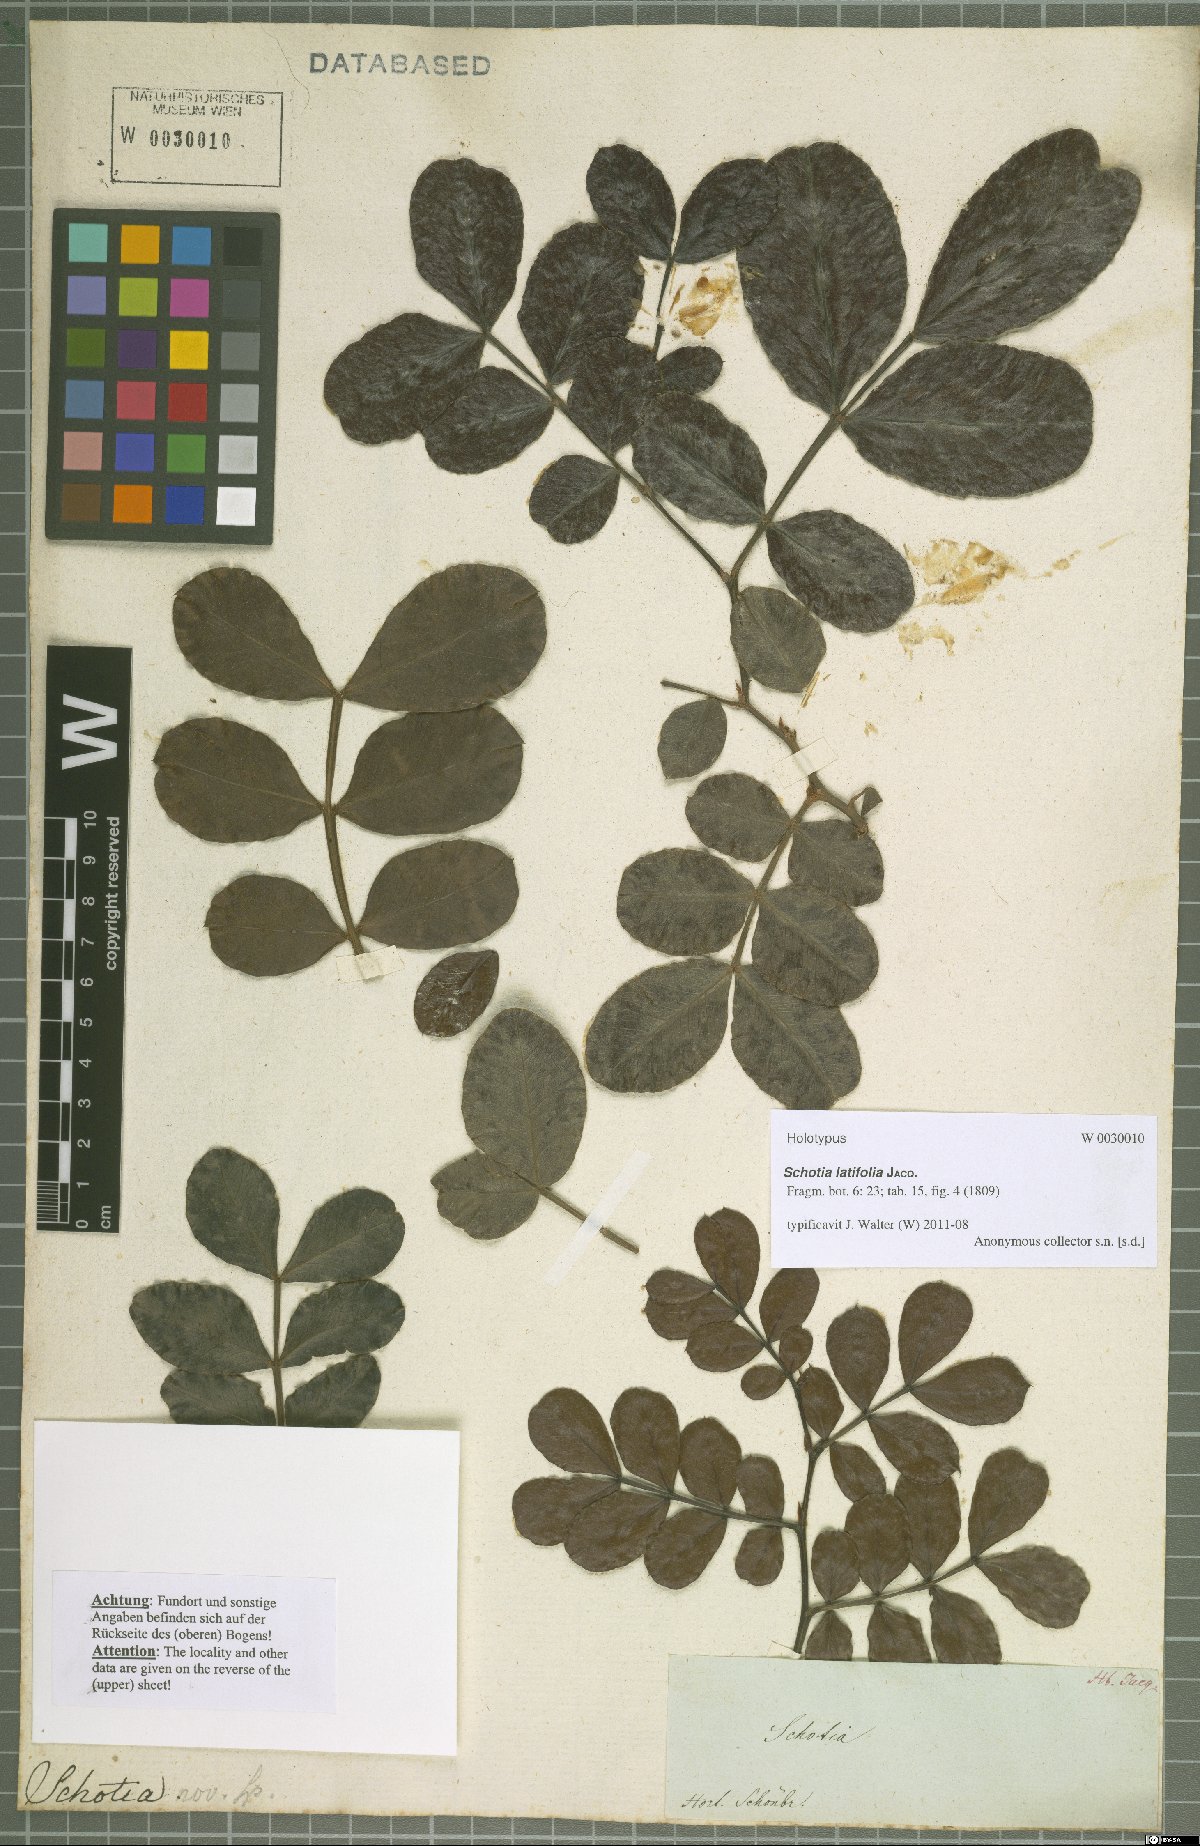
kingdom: Plantae
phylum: Tracheophyta
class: Magnoliopsida
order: Fabales
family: Fabaceae
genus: Schotia
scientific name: Schotia latifolia
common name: Bush boer-bean
